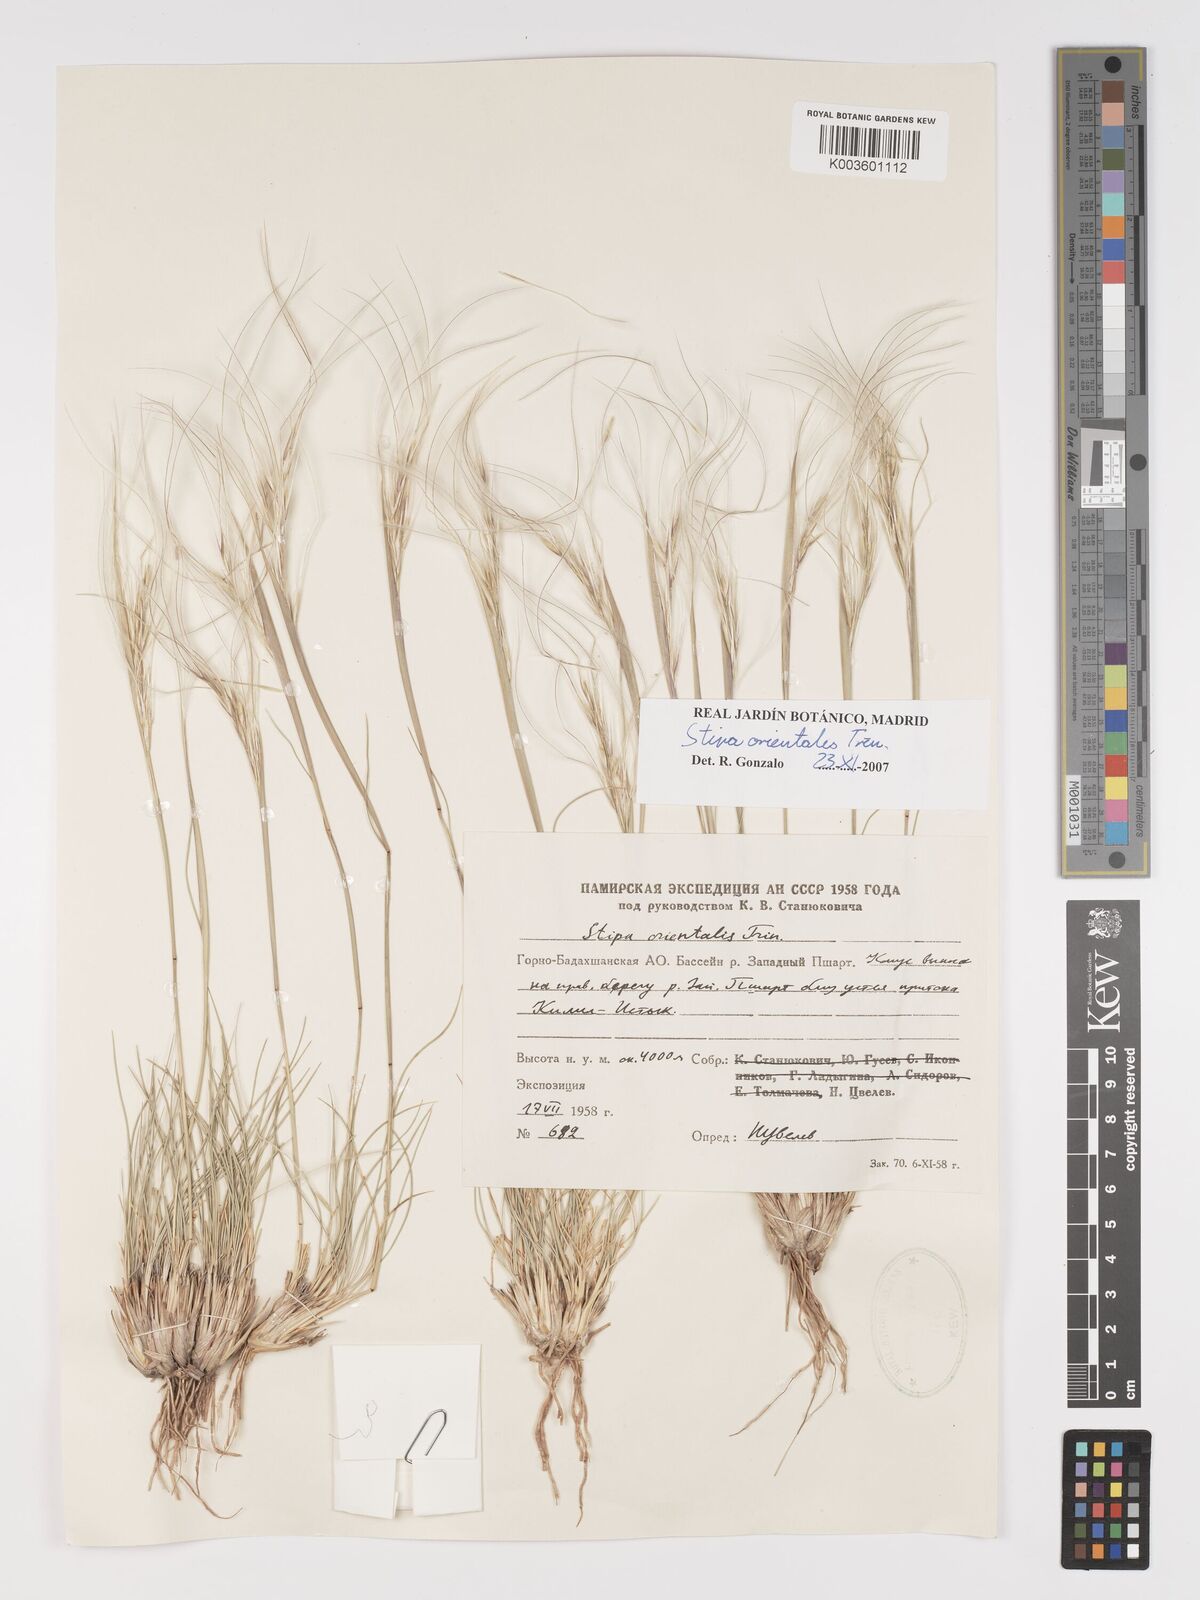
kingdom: Plantae
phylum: Tracheophyta
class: Liliopsida
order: Poales
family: Poaceae
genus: Stipa
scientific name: Stipa orientalis
